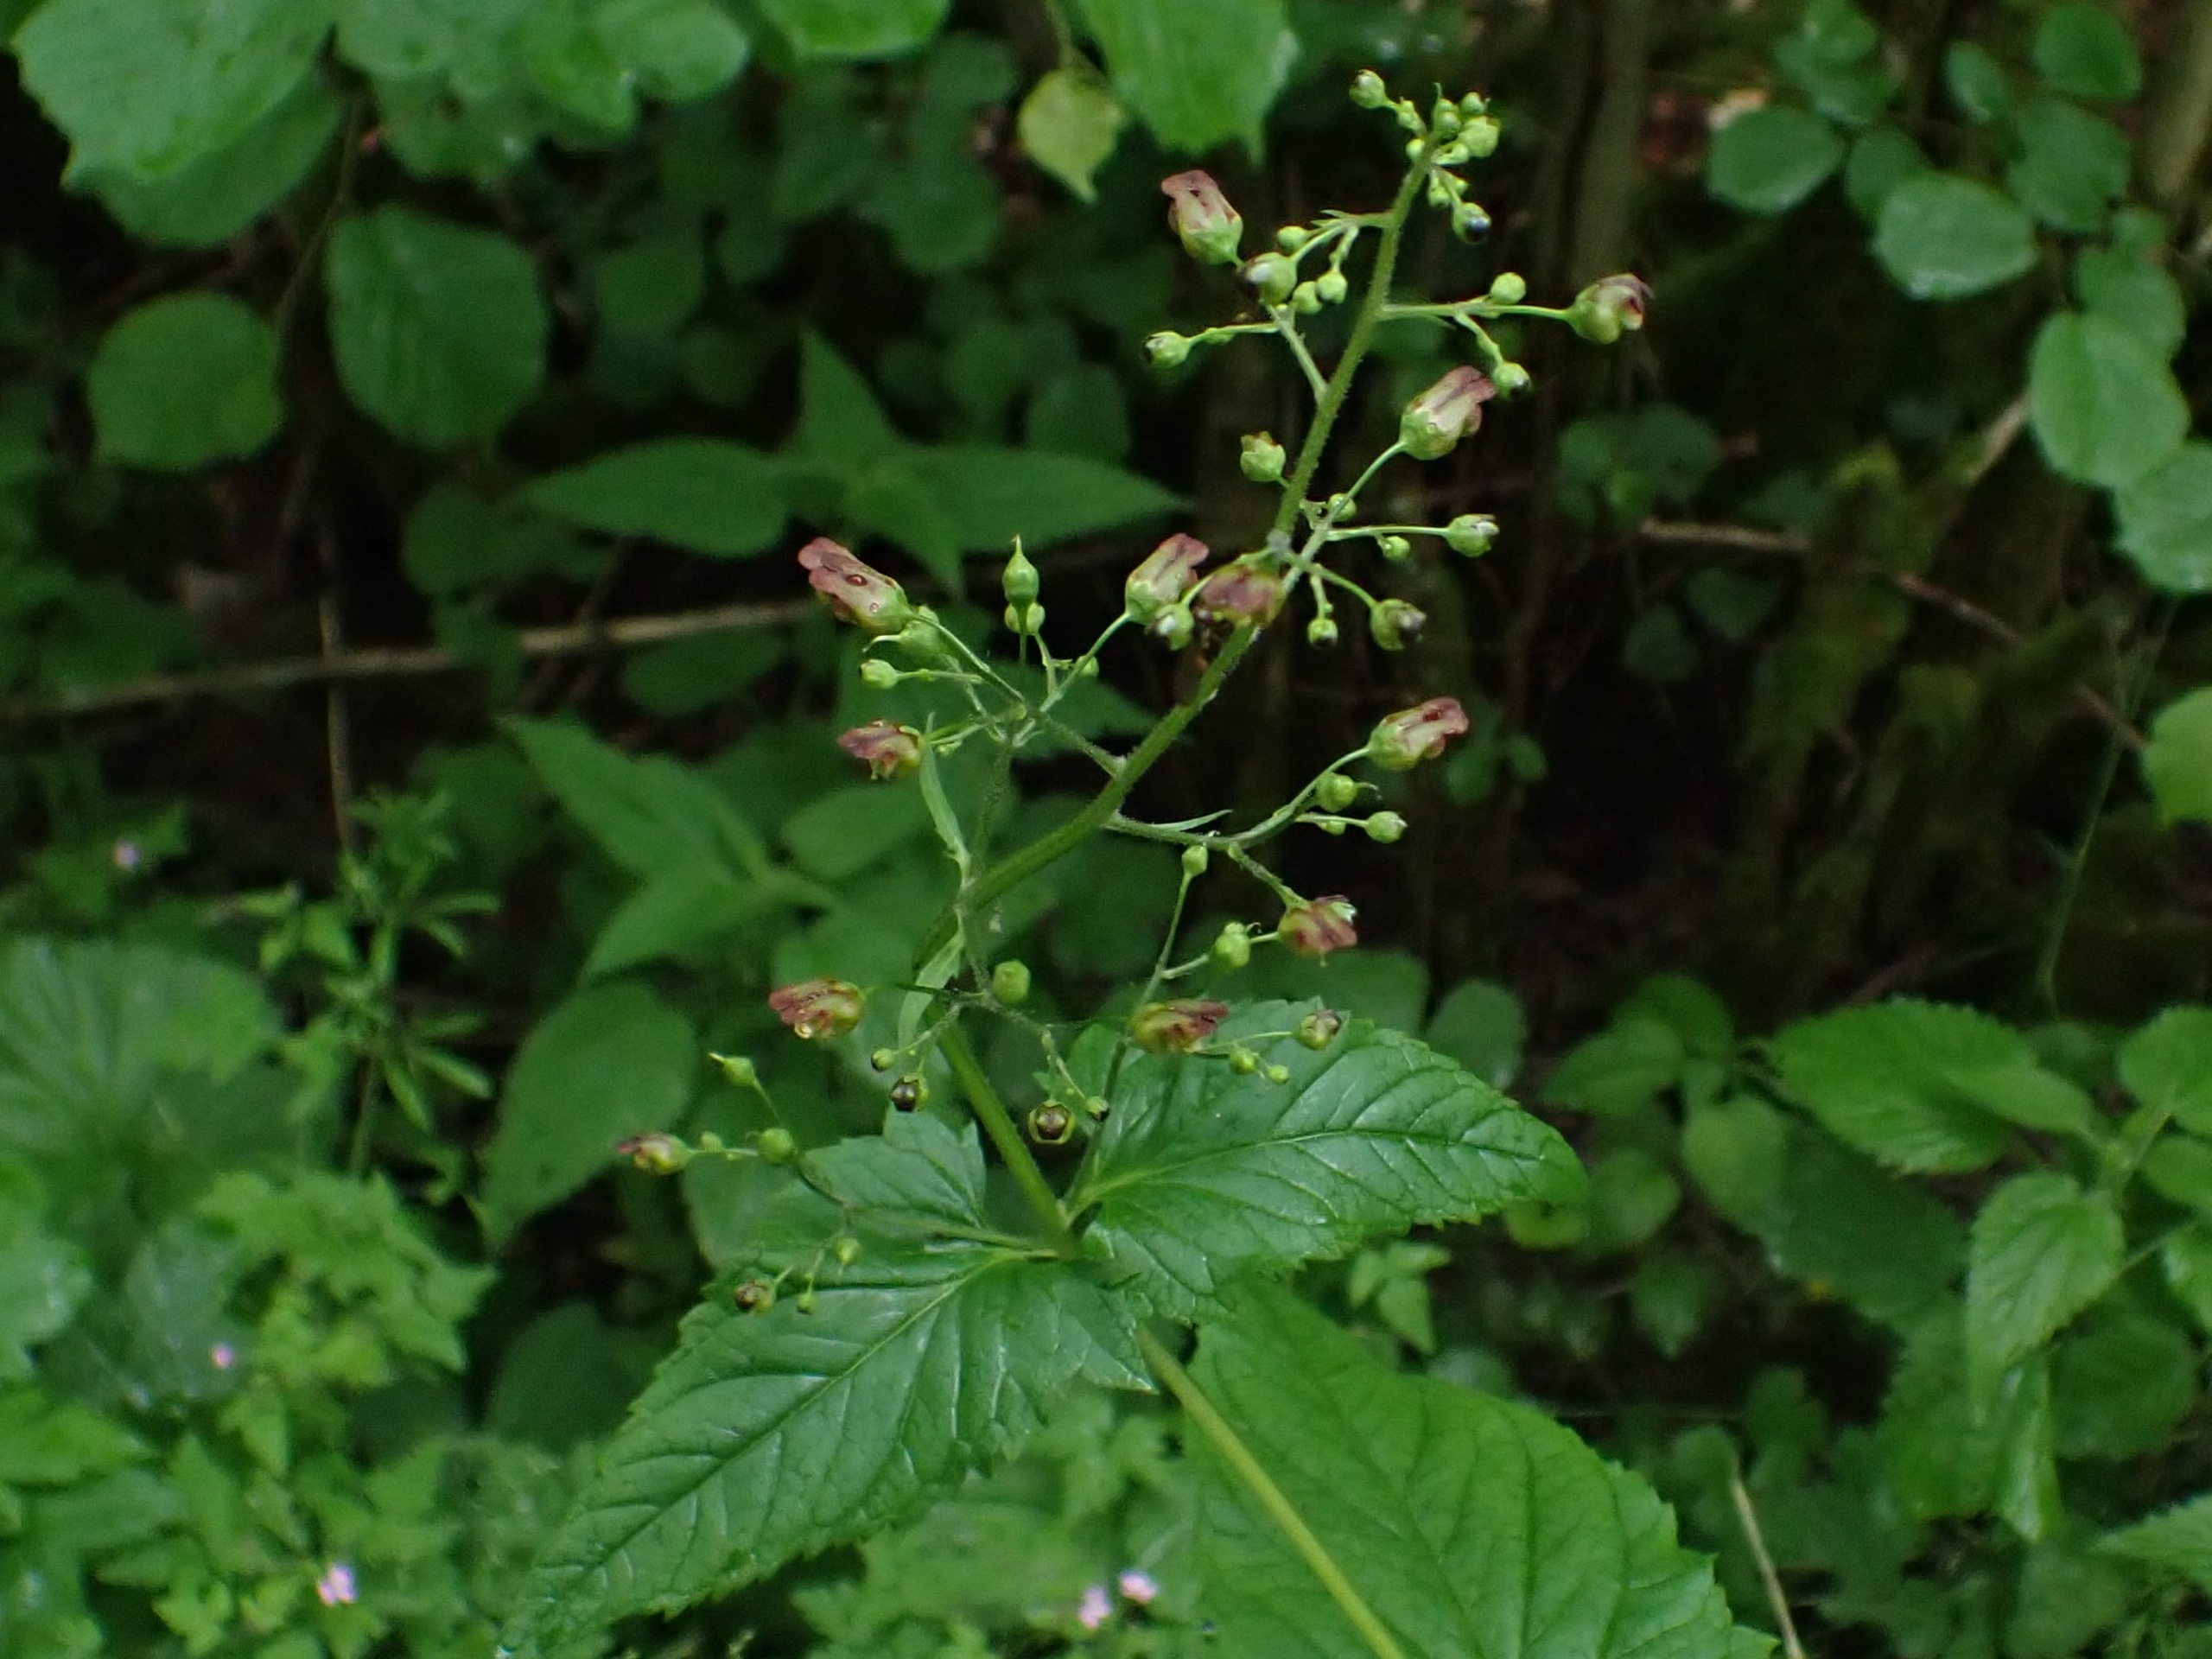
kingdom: Plantae
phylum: Tracheophyta
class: Magnoliopsida
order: Lamiales
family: Scrophulariaceae
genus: Scrophularia
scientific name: Scrophularia nodosa
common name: Knoldet brunrod
